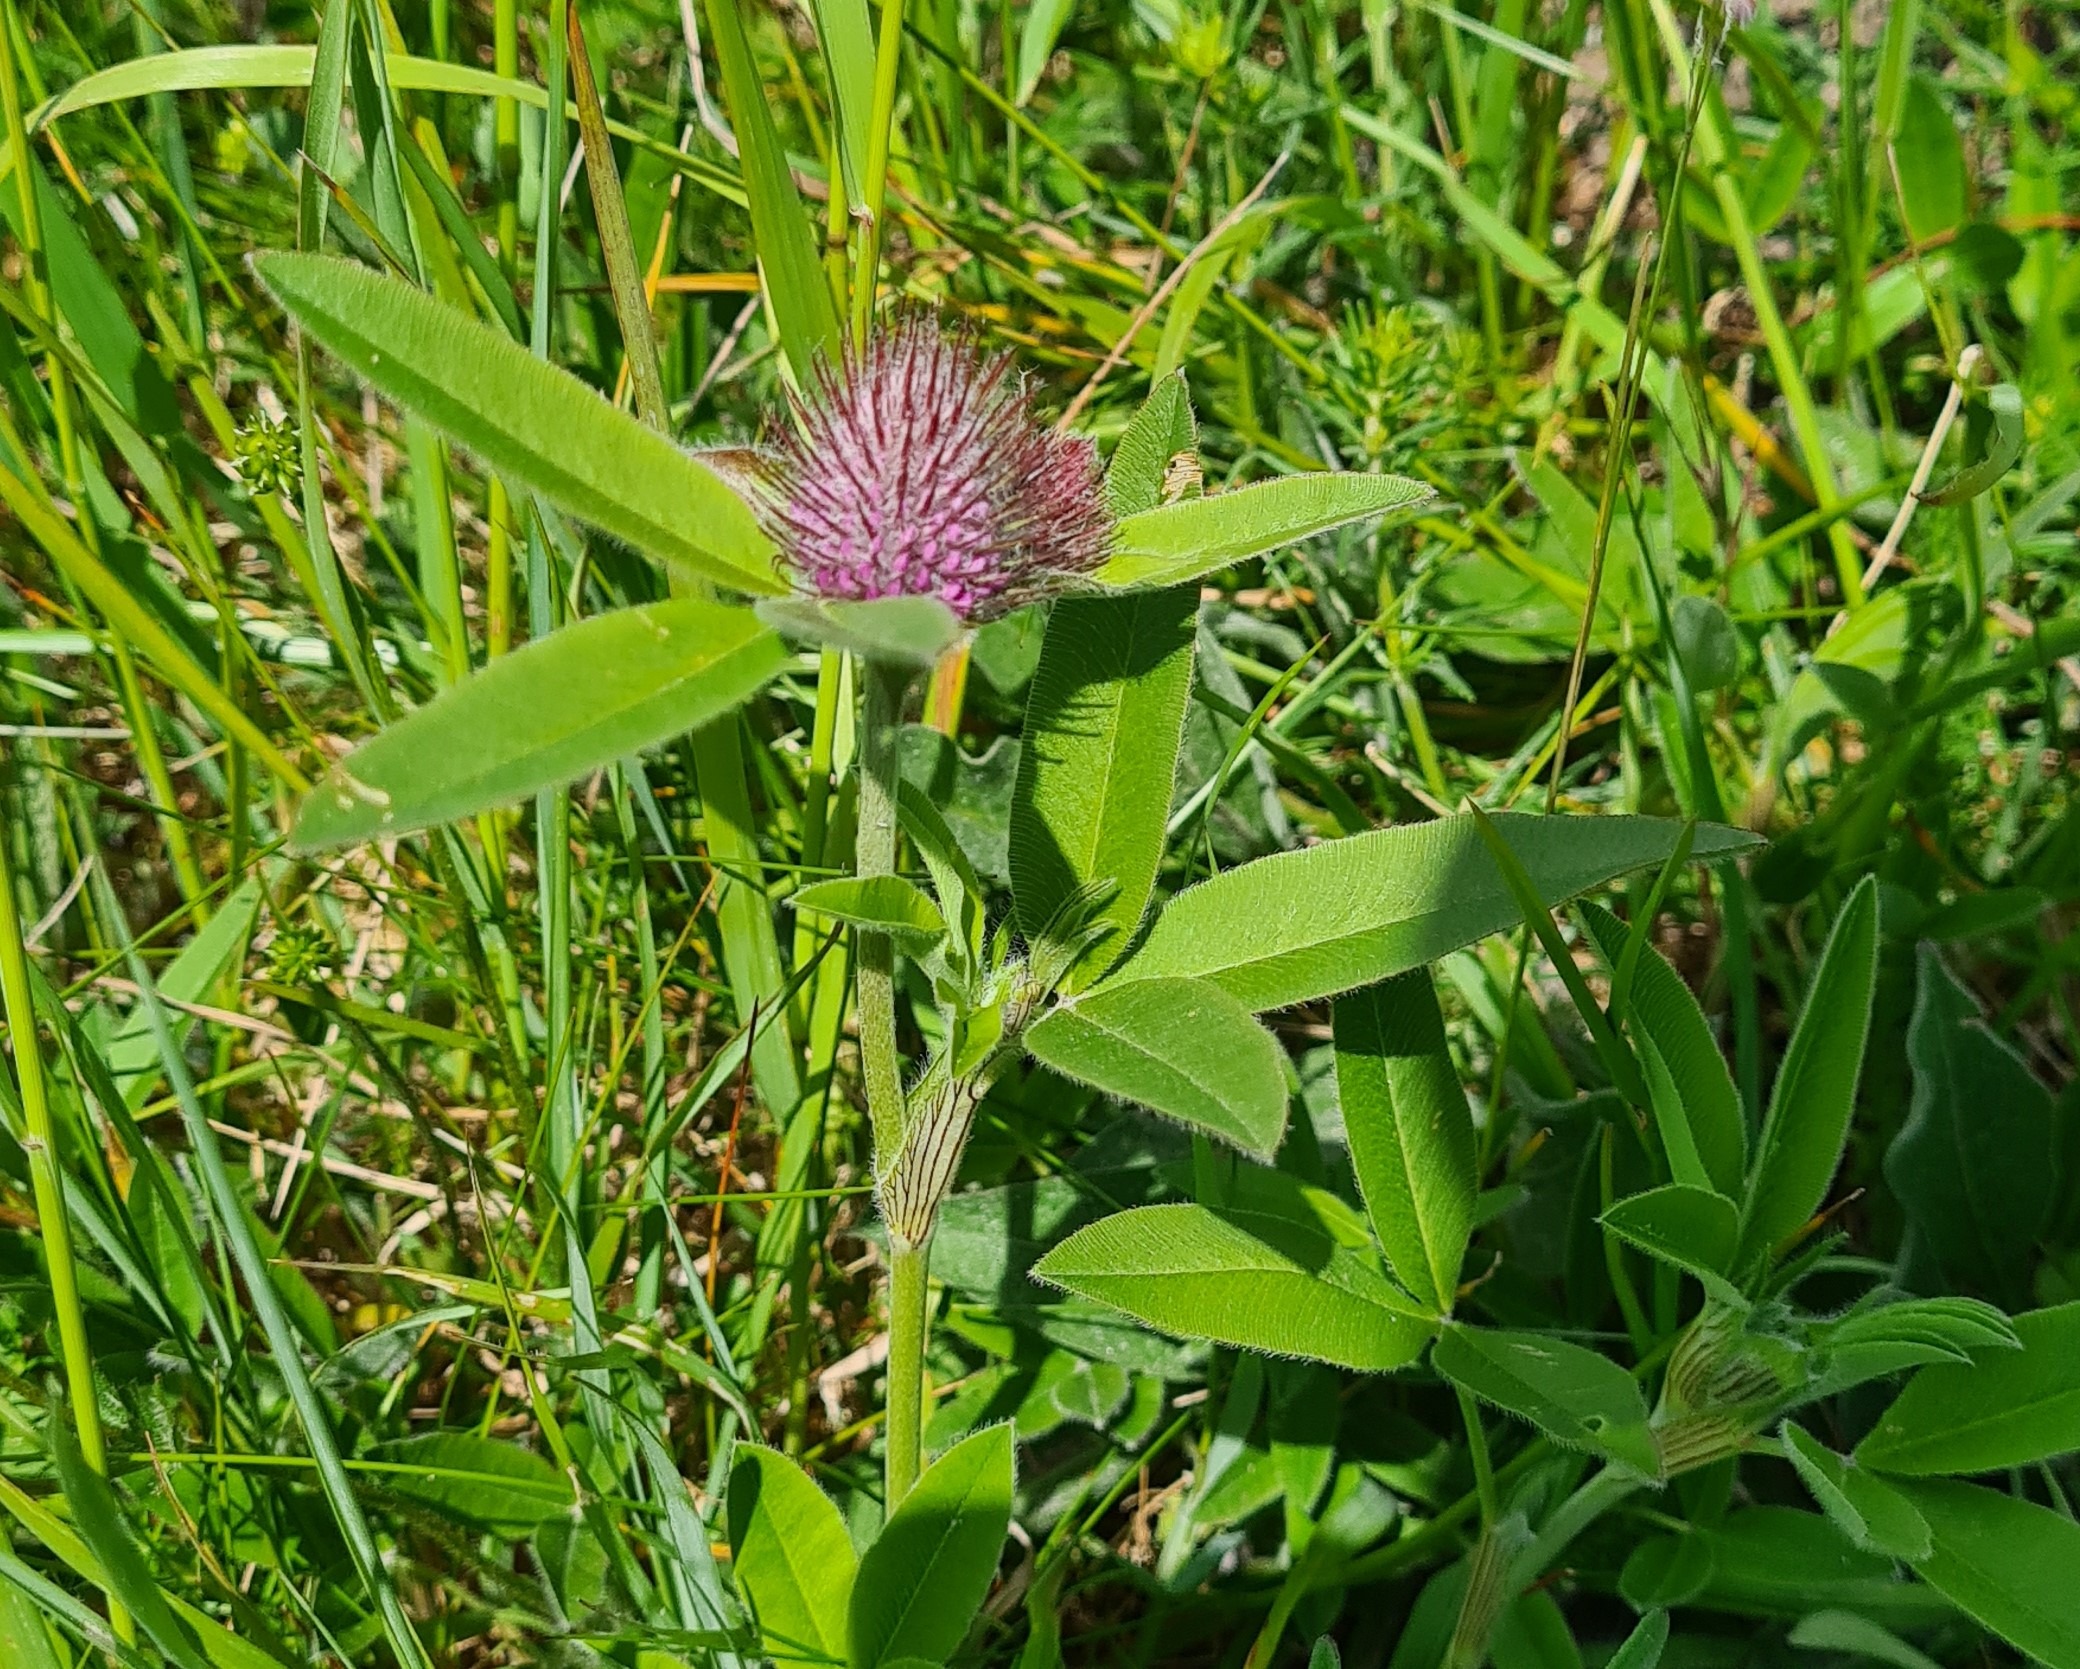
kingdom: Plantae
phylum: Tracheophyta
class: Magnoliopsida
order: Fabales
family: Fabaceae
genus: Trifolium
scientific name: Trifolium alpestre
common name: Skov-kløver
